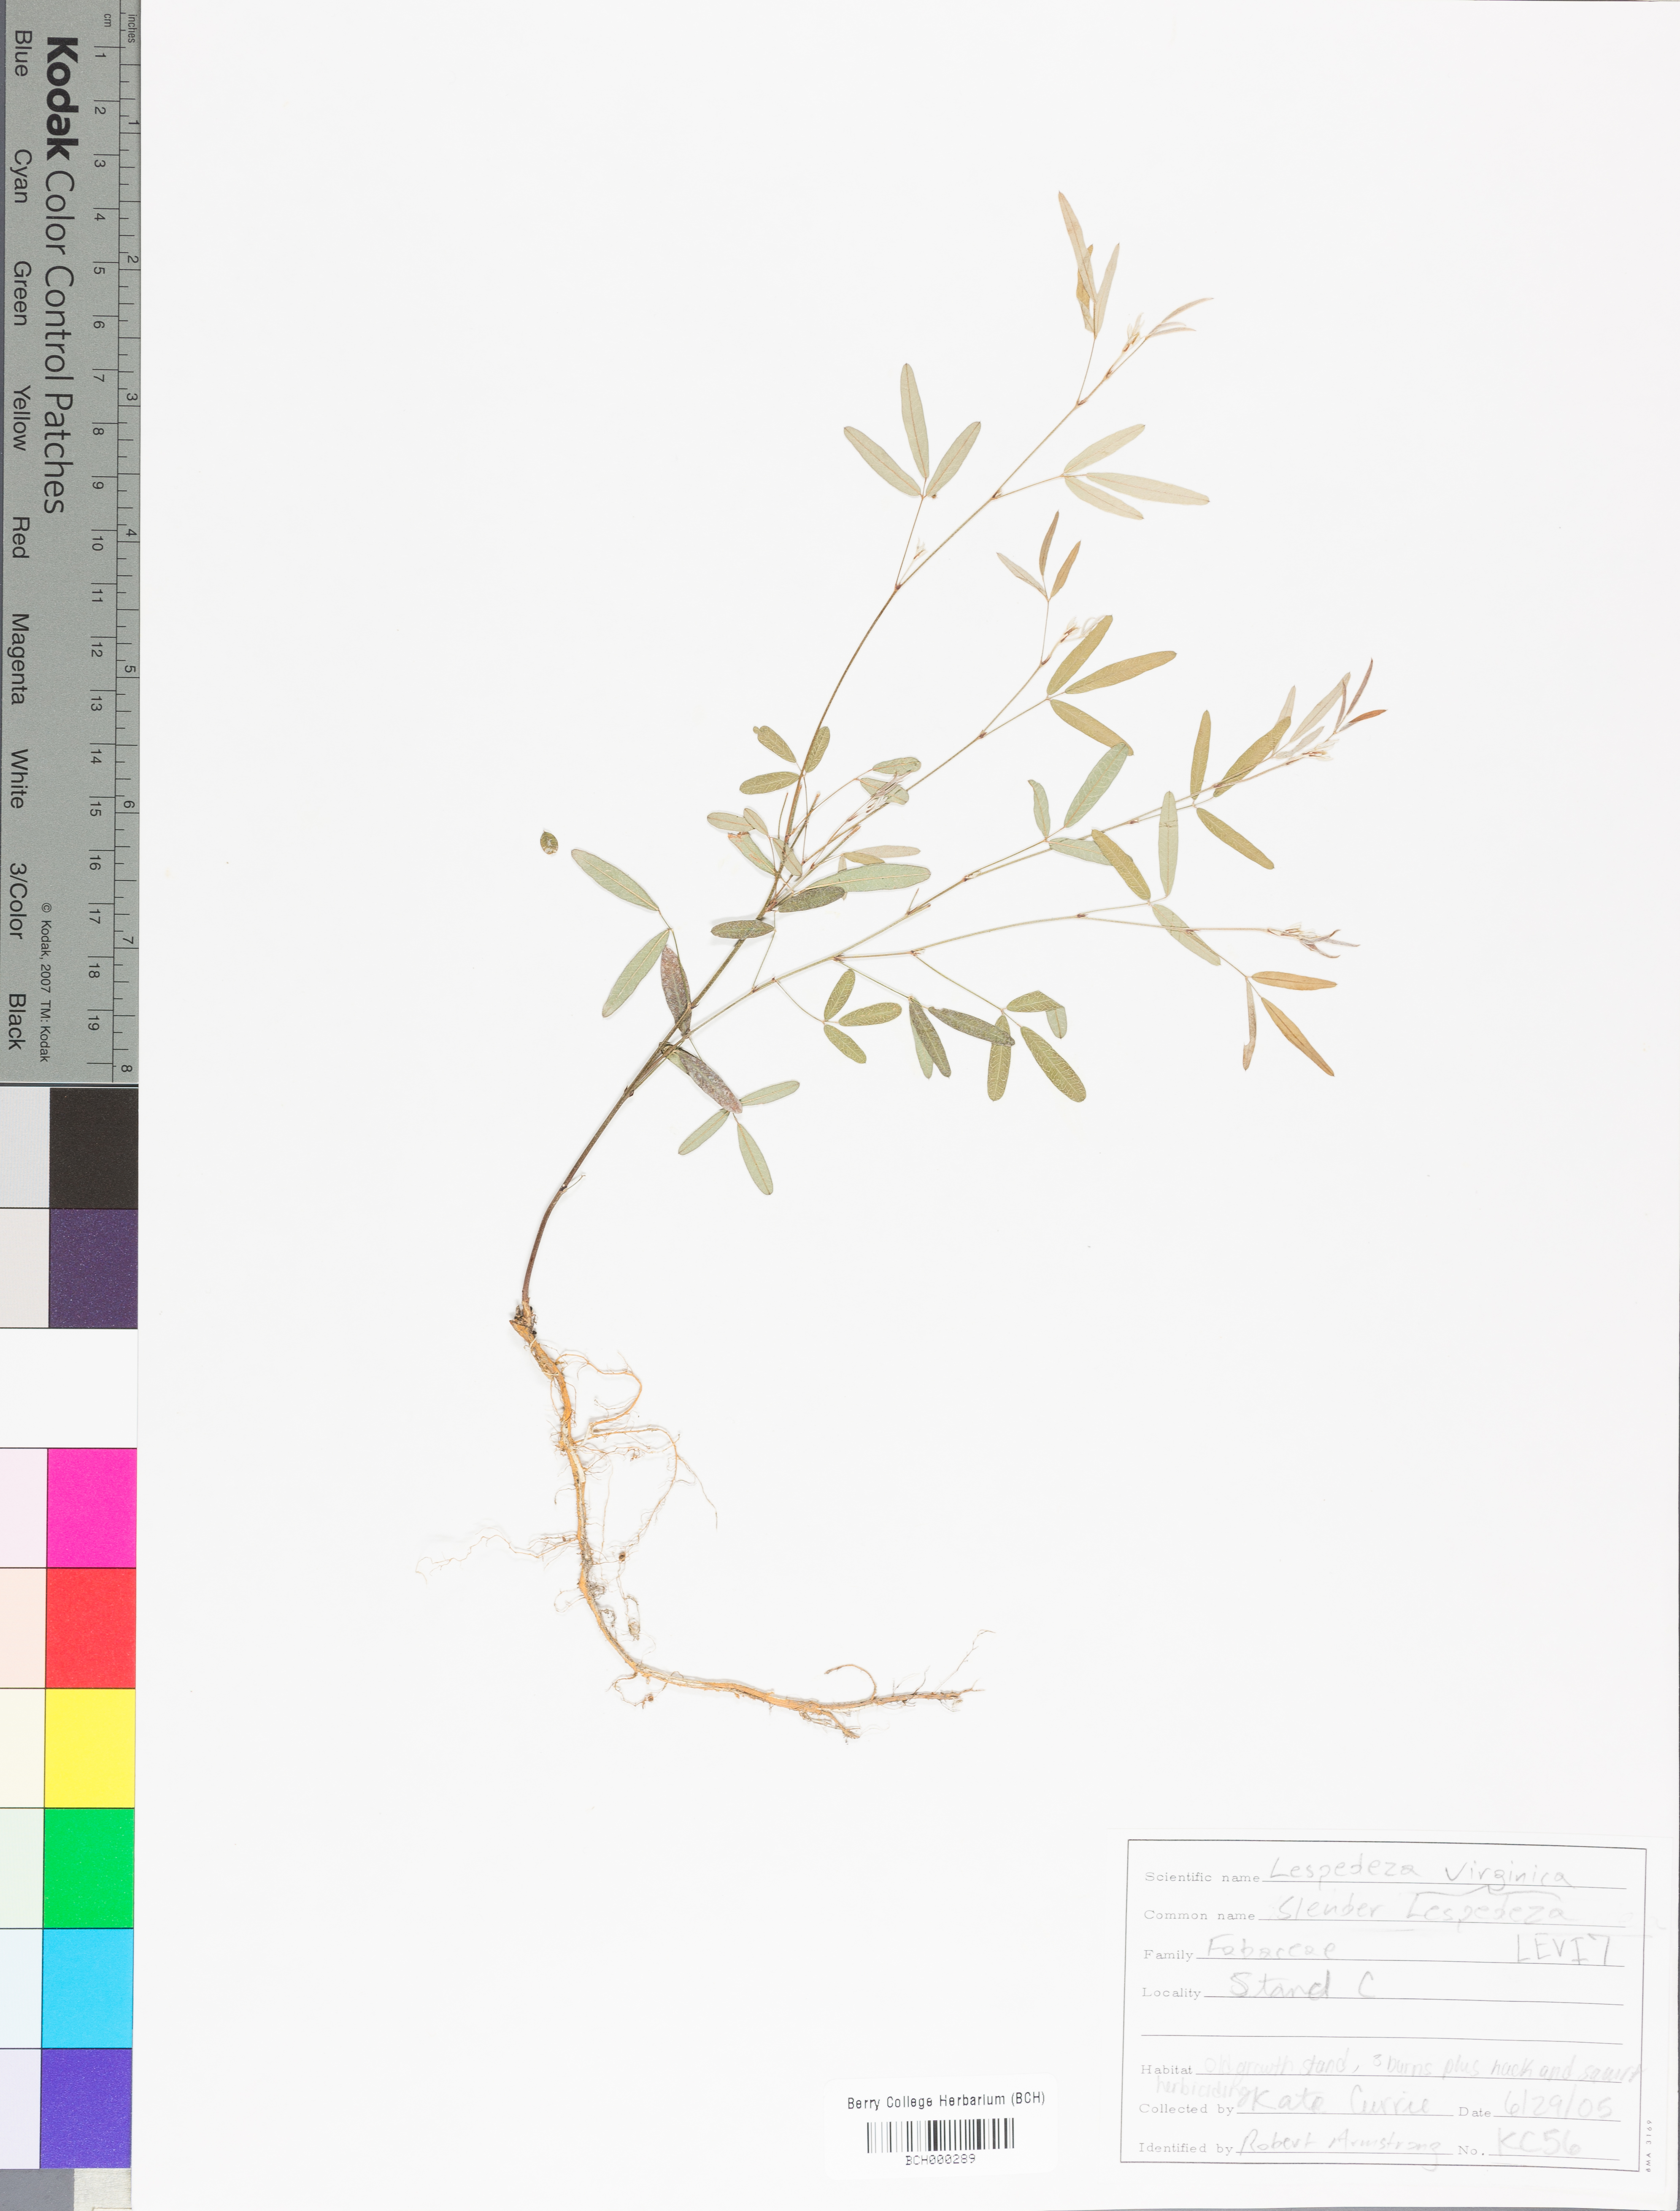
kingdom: Plantae
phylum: Tracheophyta
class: Magnoliopsida
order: Fabales
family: Fabaceae
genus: Lespedeza
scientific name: Lespedeza virginica
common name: Slender bush-clover
